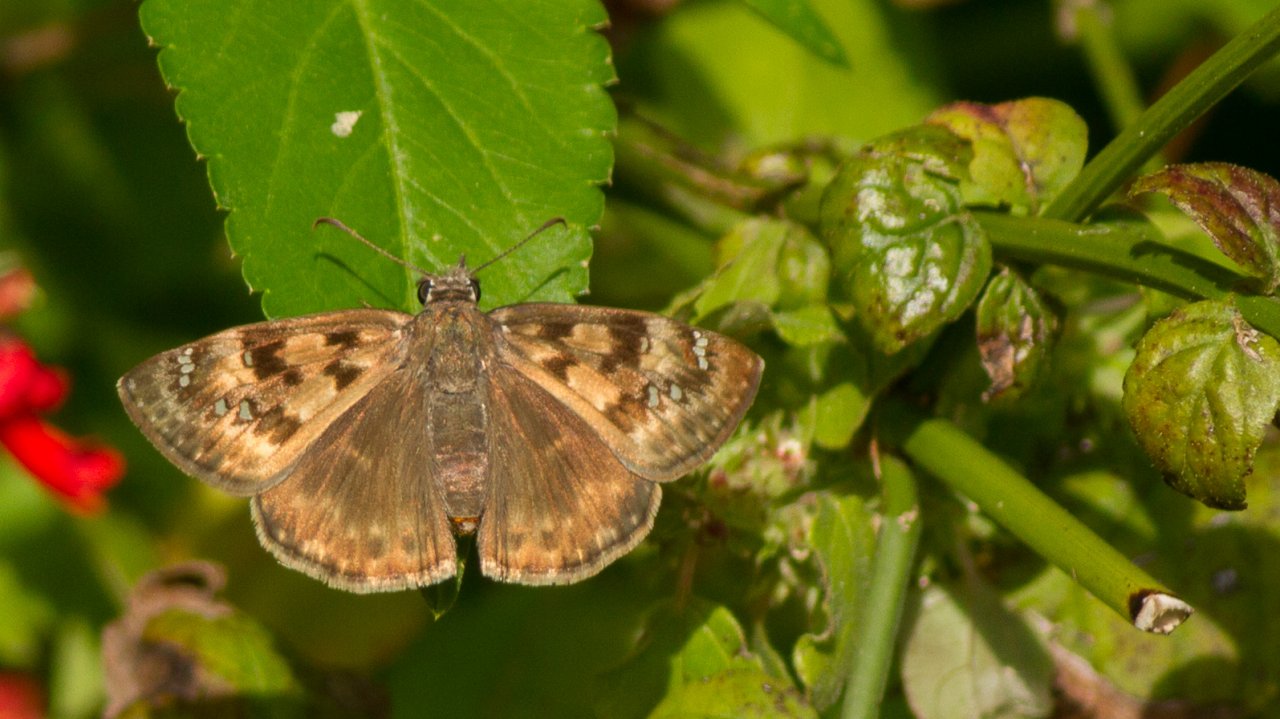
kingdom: Animalia
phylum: Arthropoda
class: Insecta
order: Lepidoptera
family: Hesperiidae
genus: Gesta
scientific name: Gesta
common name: Horace's Duskywing
